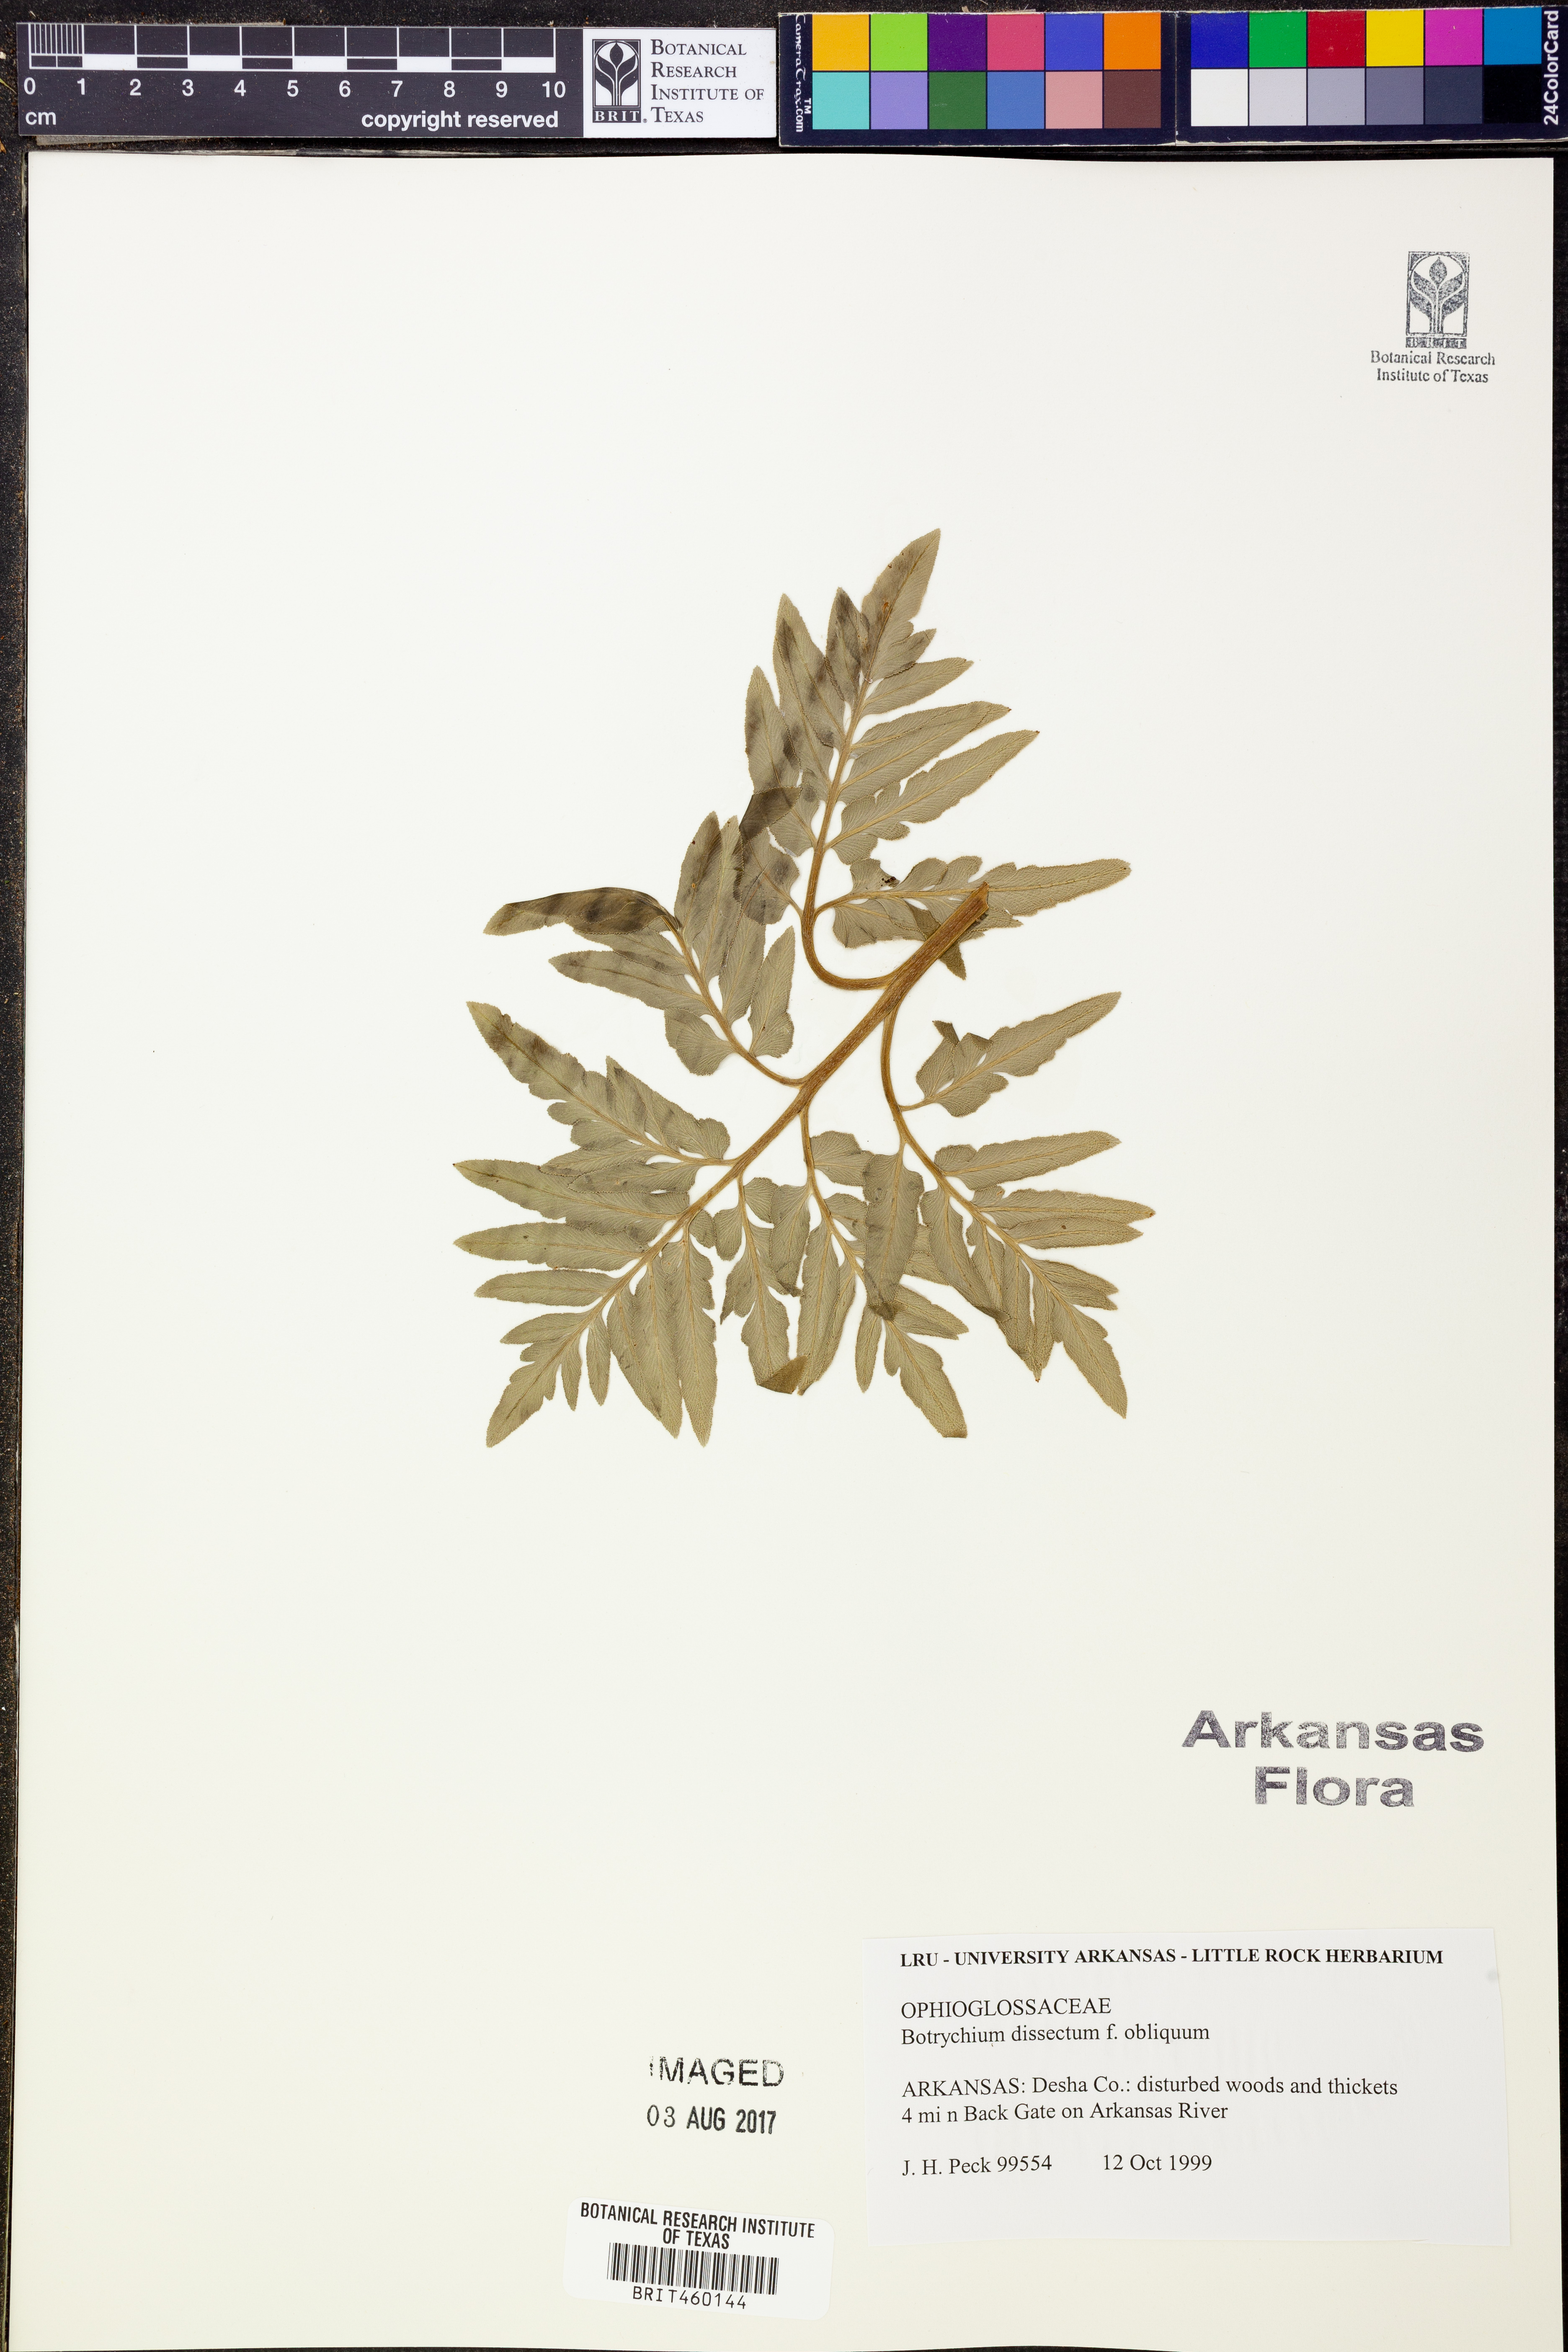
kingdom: Plantae
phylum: Tracheophyta
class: Polypodiopsida
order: Ophioglossales
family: Ophioglossaceae
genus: Sceptridium
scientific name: Sceptridium dissectum
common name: Cut-leaved grapefern
